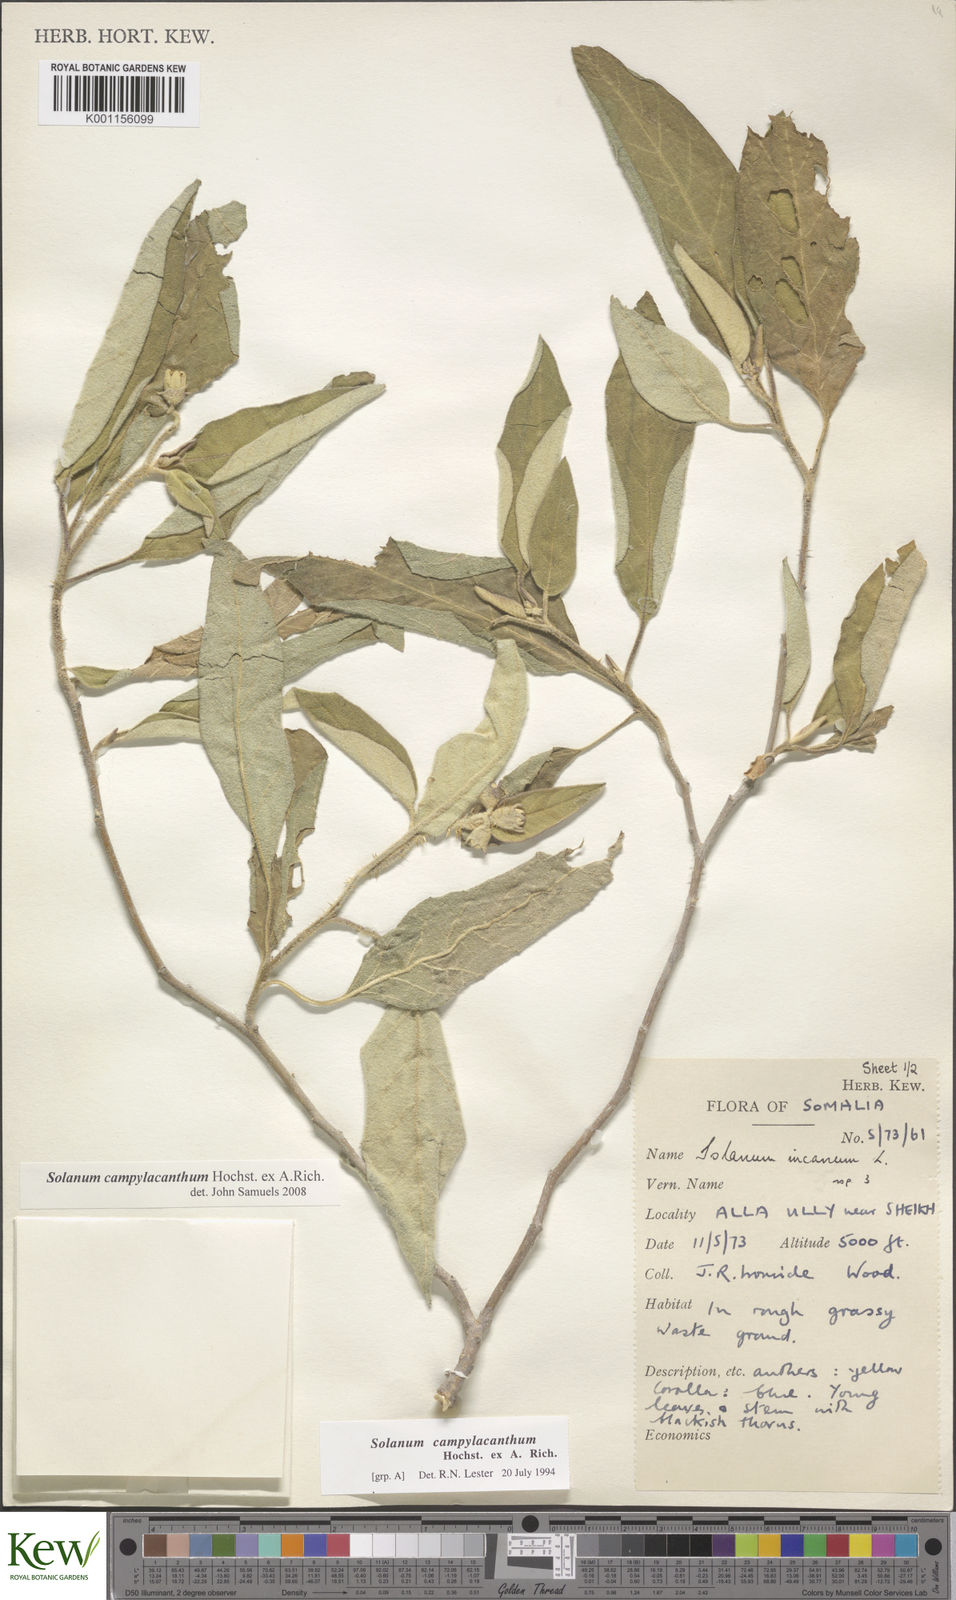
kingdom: Plantae
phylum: Tracheophyta
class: Magnoliopsida
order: Solanales
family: Solanaceae
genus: Solanum
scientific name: Solanum campylacanthum
